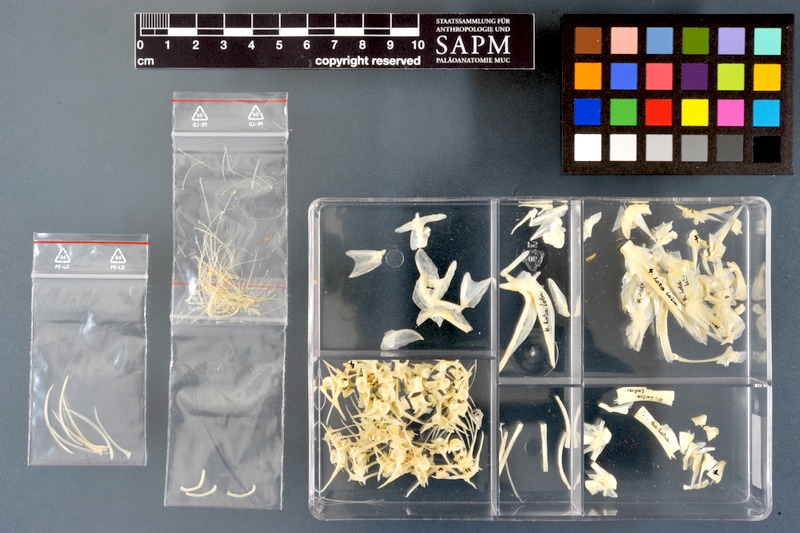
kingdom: Animalia
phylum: Chordata
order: Gadiformes
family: Lotidae
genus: Lota
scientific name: Lota lota
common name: Burbot
